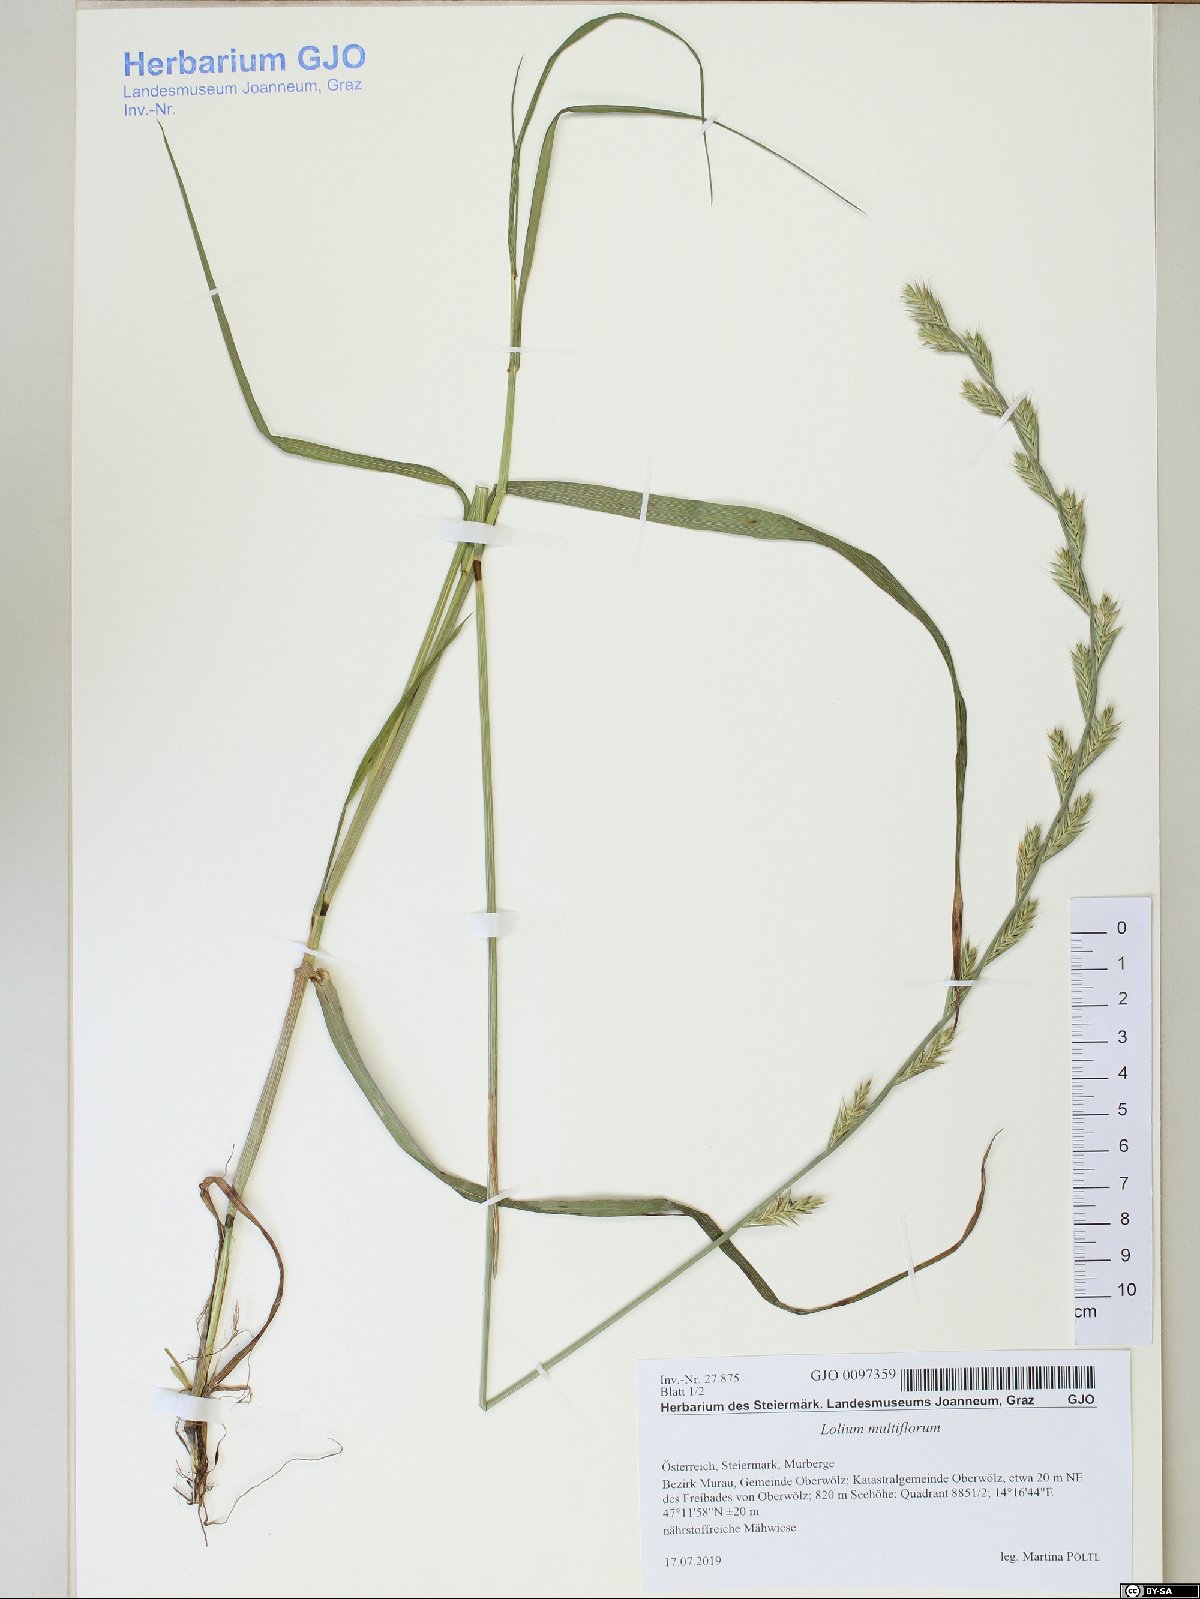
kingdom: Plantae
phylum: Tracheophyta
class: Liliopsida
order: Poales
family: Poaceae
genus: Lolium
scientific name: Lolium multiflorum
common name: Annual ryegrass
